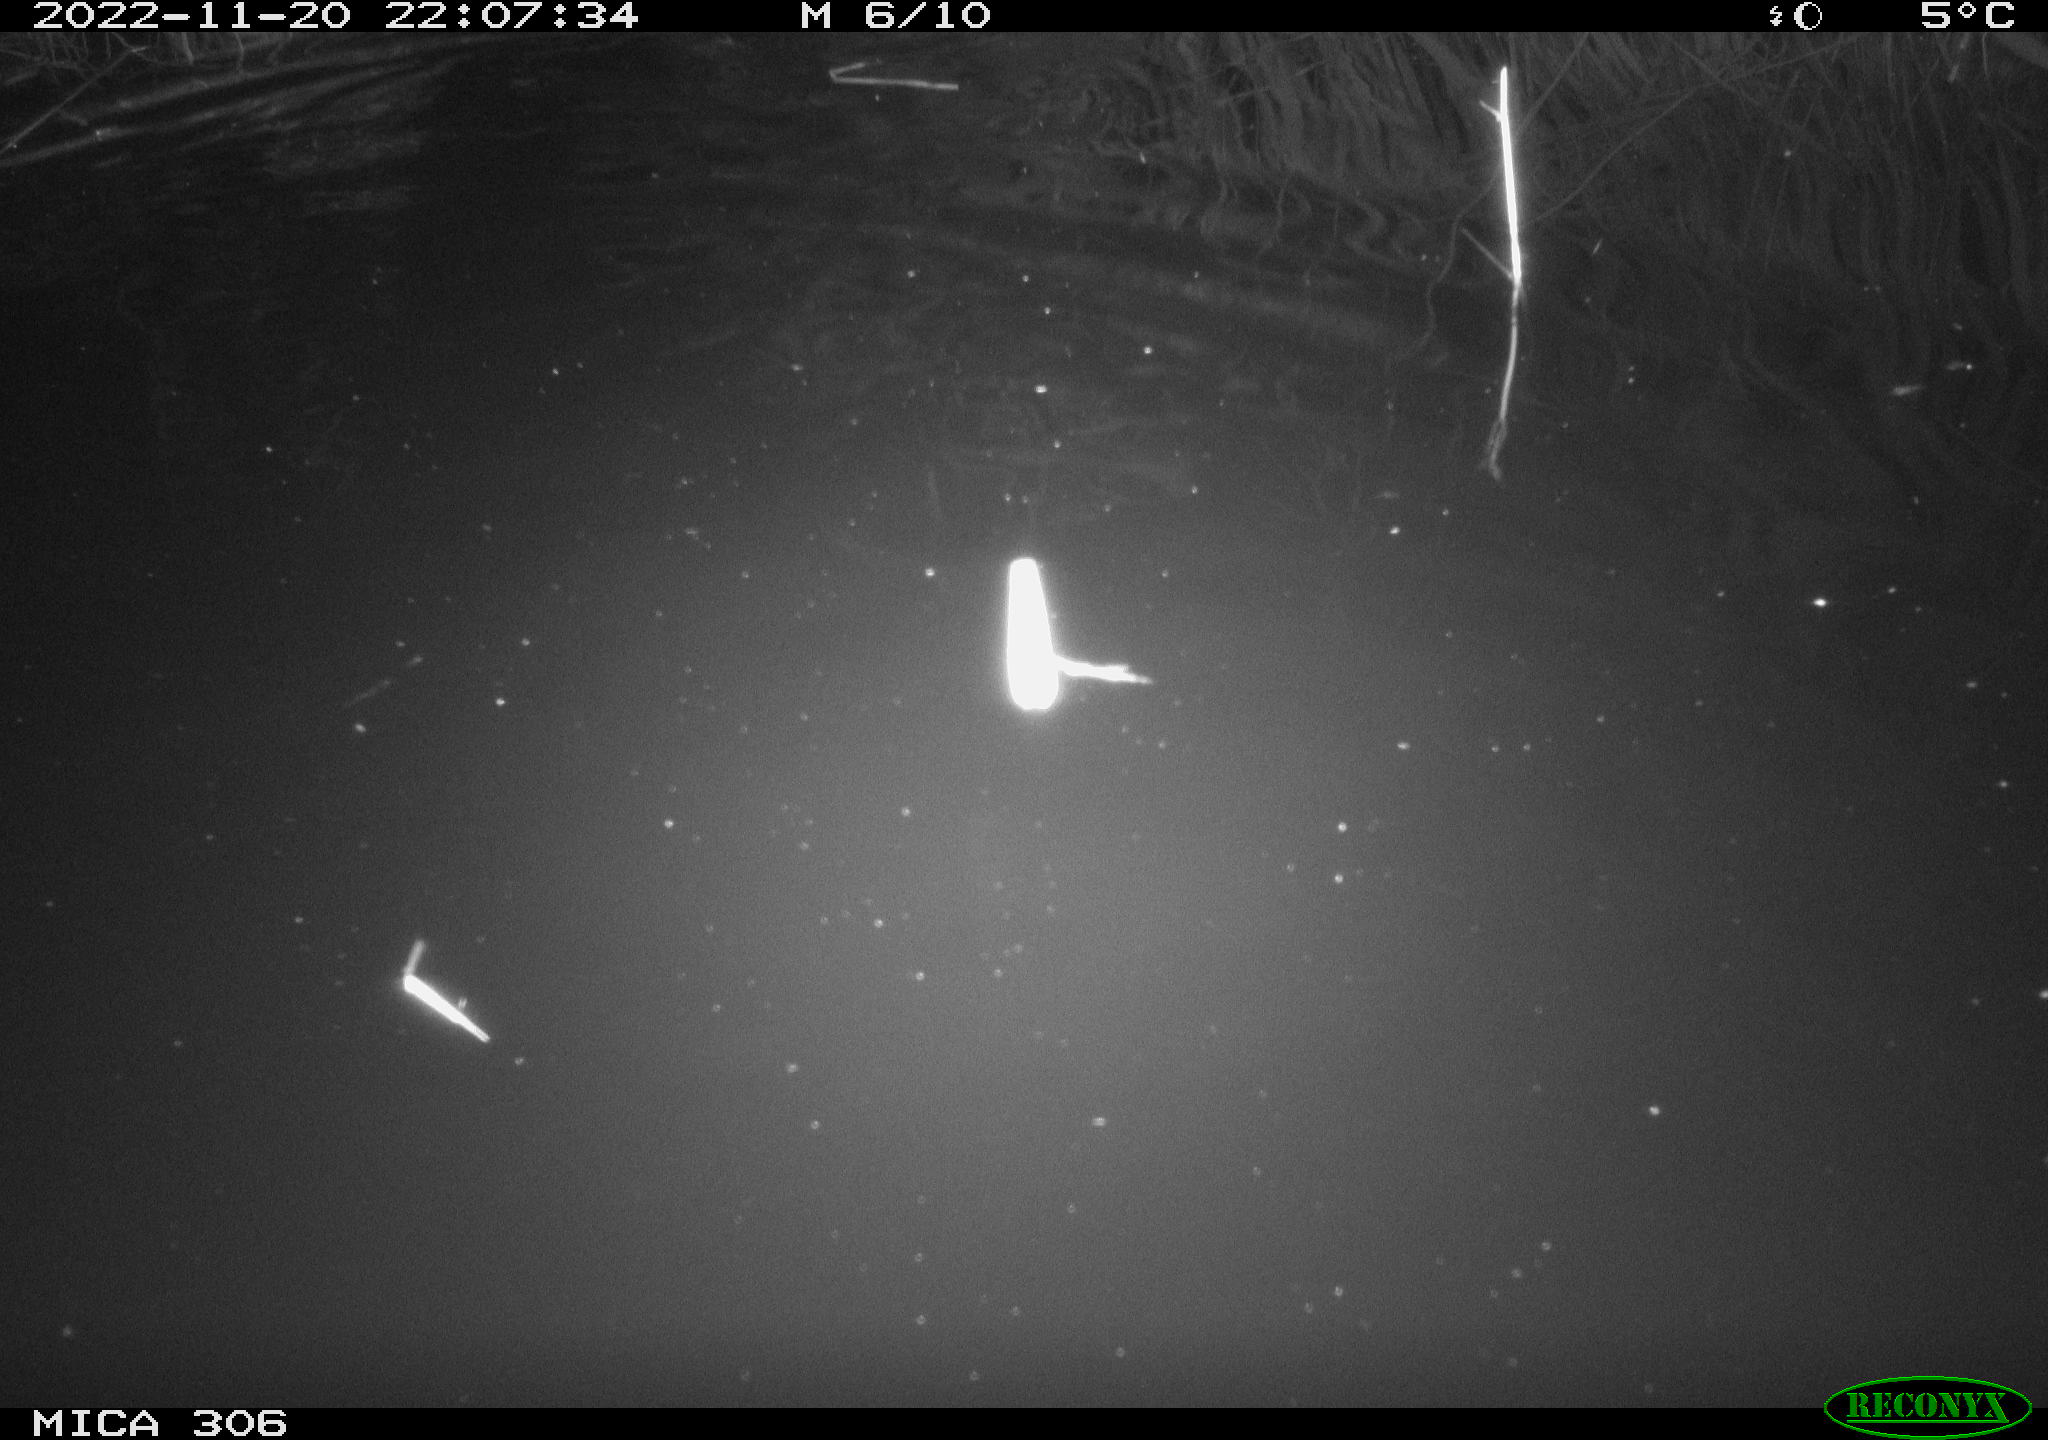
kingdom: Animalia
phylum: Chordata
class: Mammalia
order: Rodentia
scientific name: Rodentia
